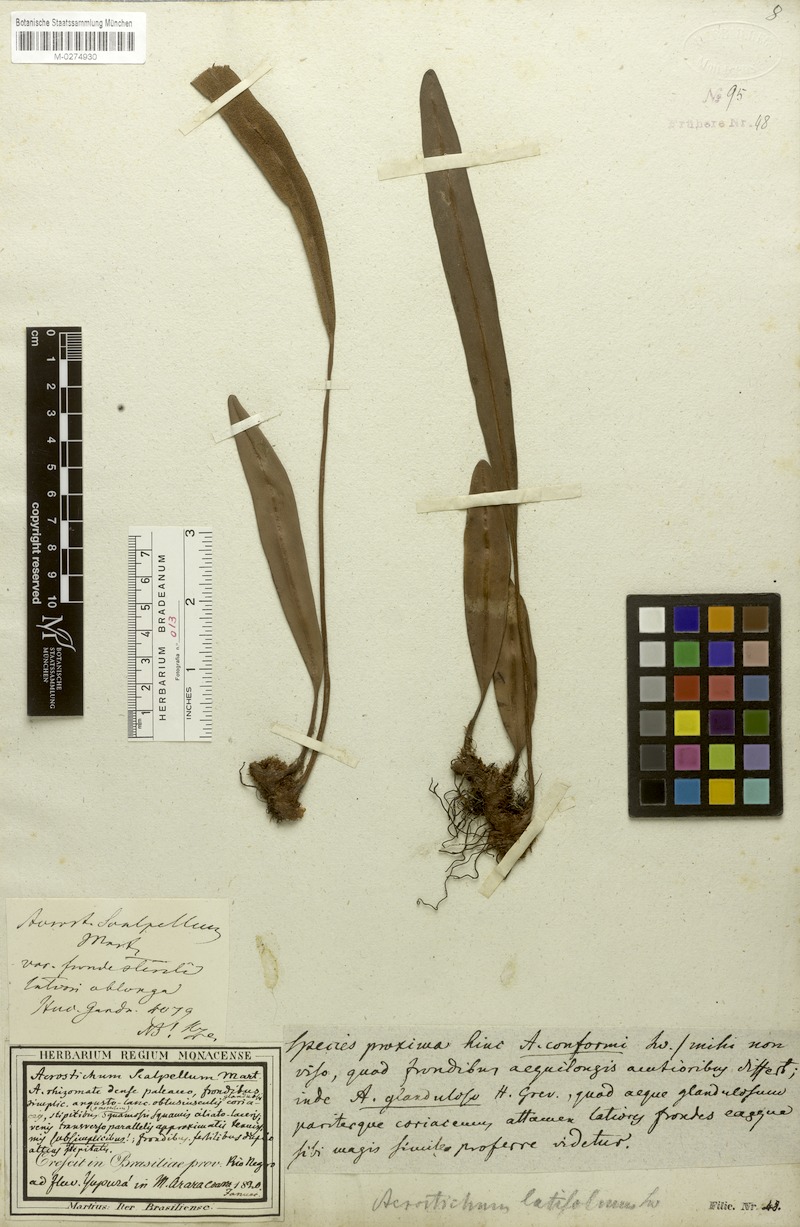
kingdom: Plantae
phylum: Tracheophyta
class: Polypodiopsida
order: Polypodiales
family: Dryopteridaceae
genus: Elaphoglossum
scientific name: Elaphoglossum sartorii
